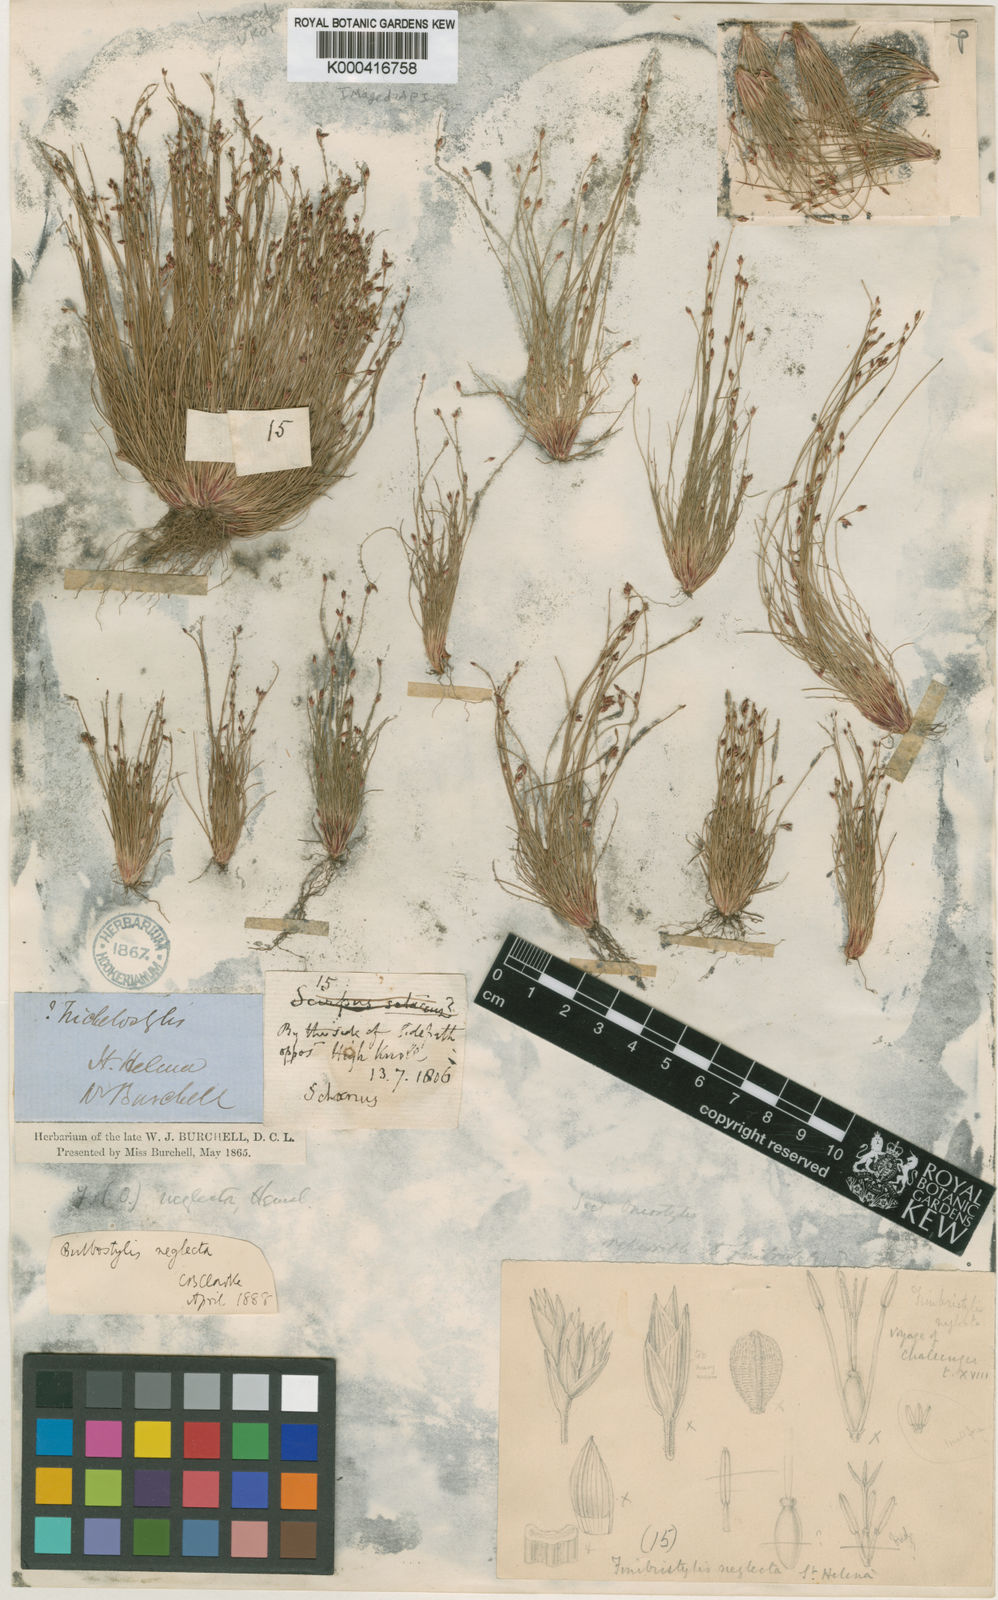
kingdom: Plantae
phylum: Tracheophyta
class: Liliopsida
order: Poales
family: Cyperaceae
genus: Bulbostylis
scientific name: Bulbostylis neglecta
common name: Neglected tuft sedge
